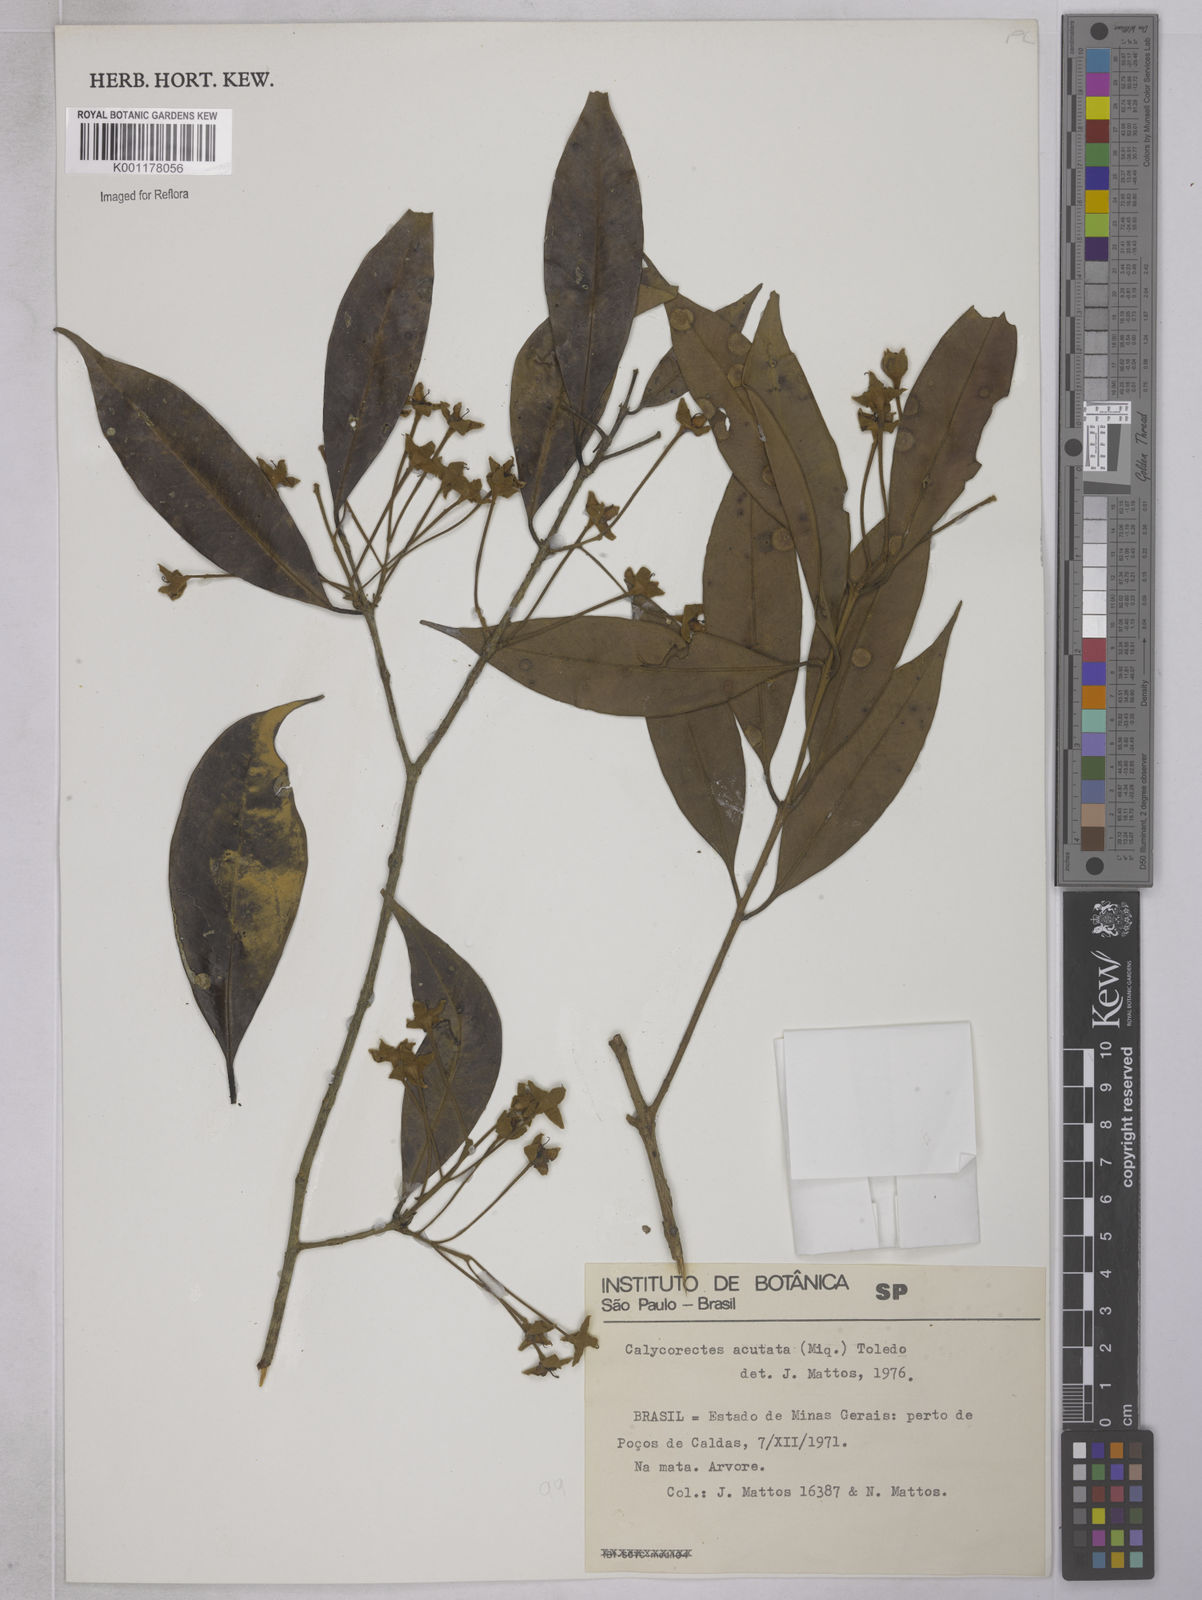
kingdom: Plantae
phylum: Tracheophyta
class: Magnoliopsida
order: Myrtales
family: Myrtaceae
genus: Calycorectes
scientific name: Calycorectes acutatus
